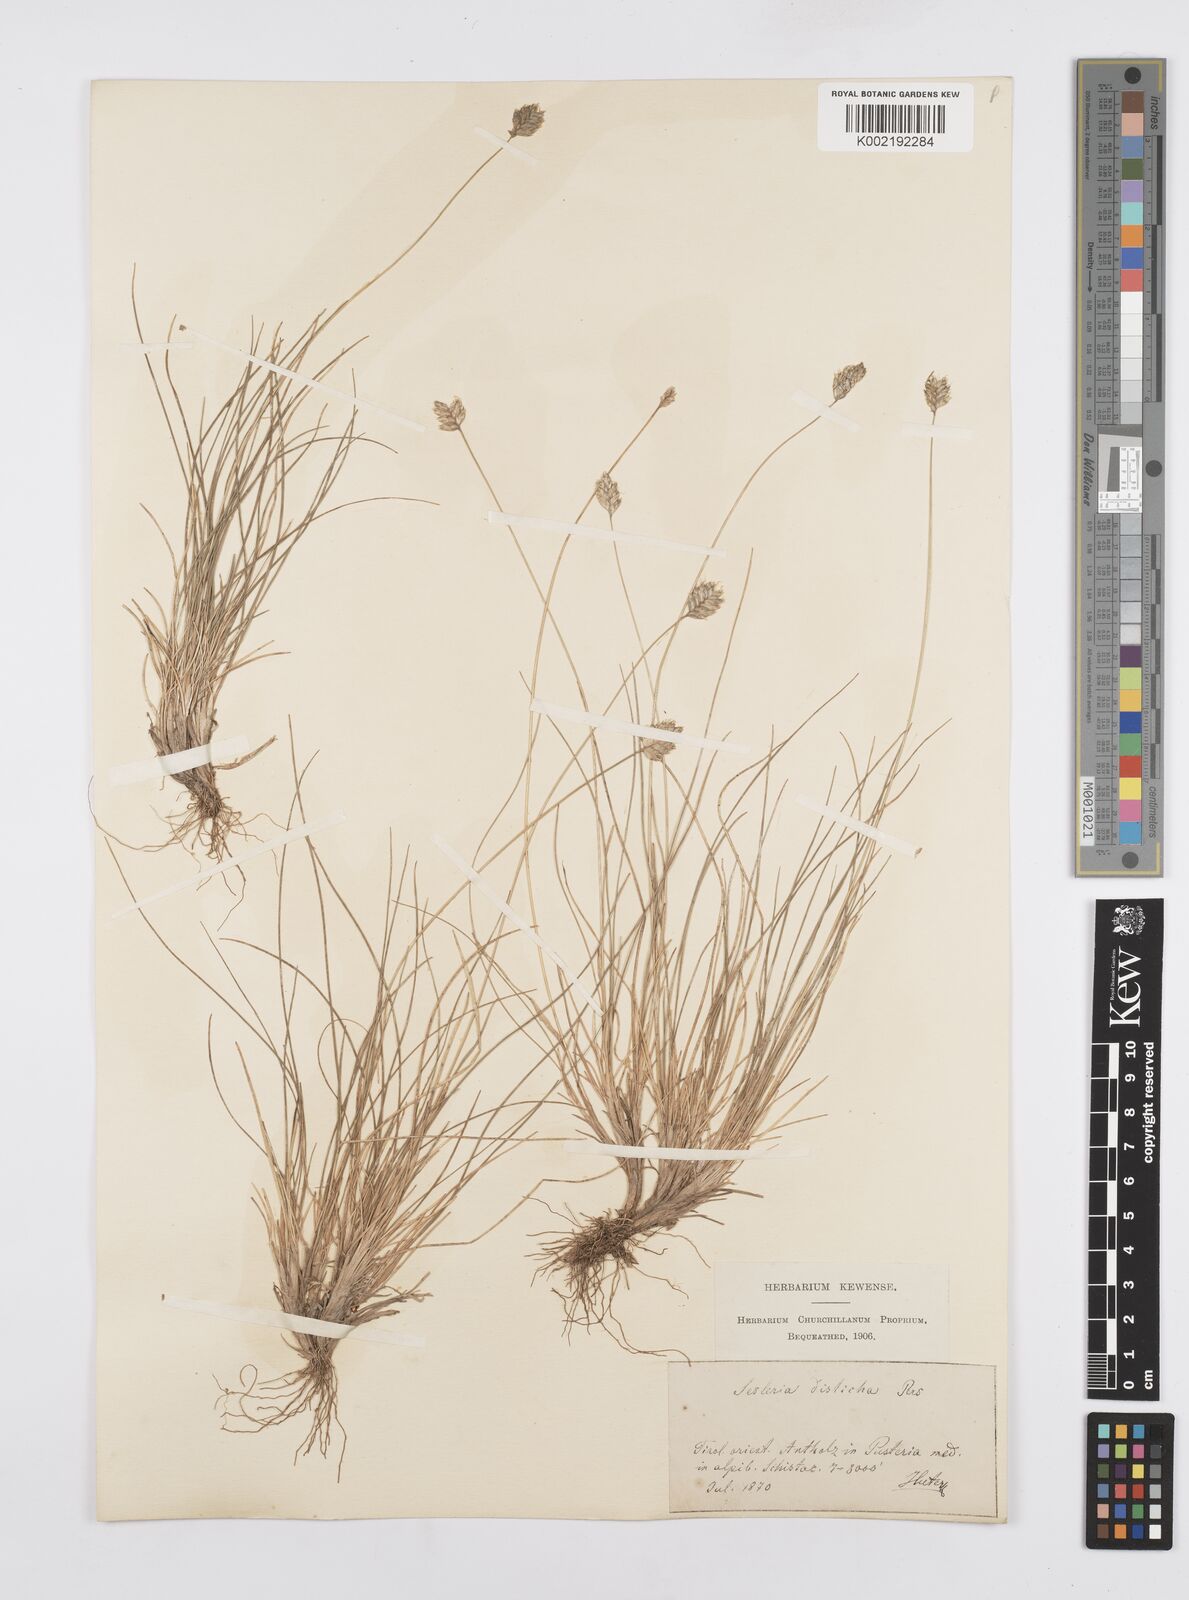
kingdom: Plantae
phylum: Tracheophyta
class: Liliopsida
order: Poales
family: Poaceae
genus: Oreochloa
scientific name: Oreochloa disticha
